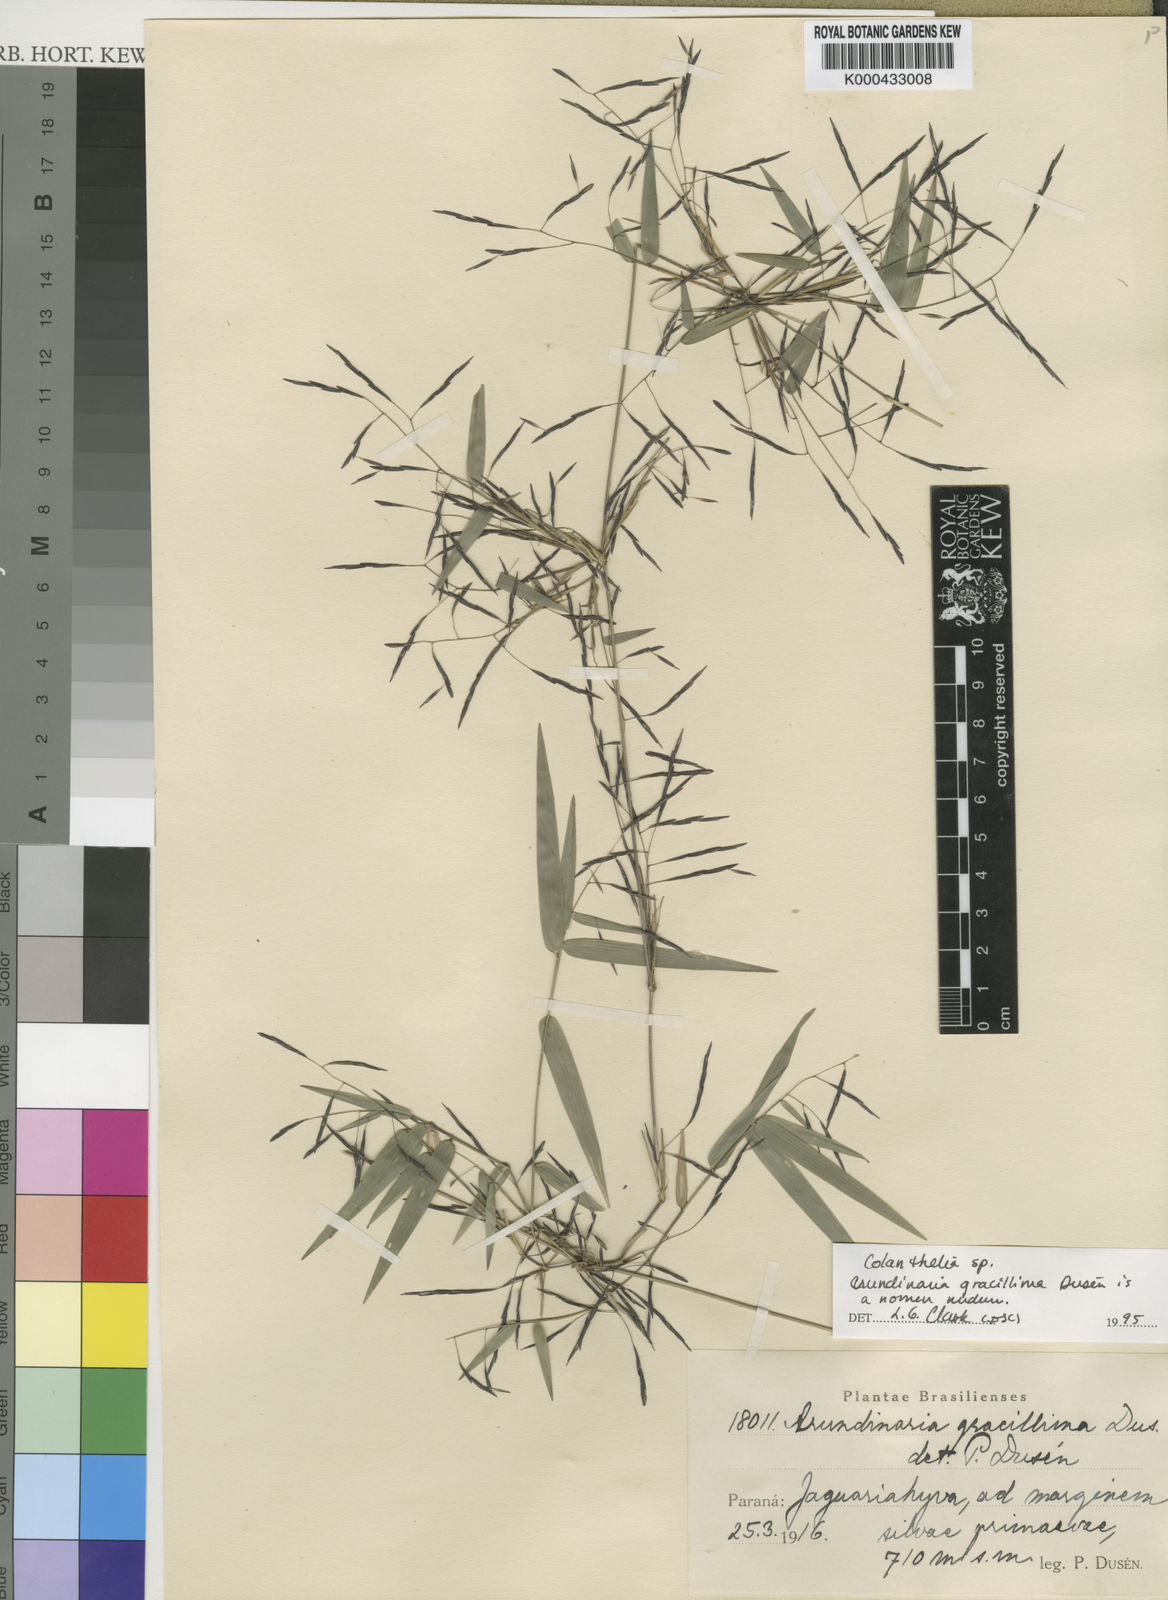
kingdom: Plantae
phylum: Tracheophyta
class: Liliopsida
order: Poales
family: Poaceae
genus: Colanthelia
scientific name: Colanthelia
